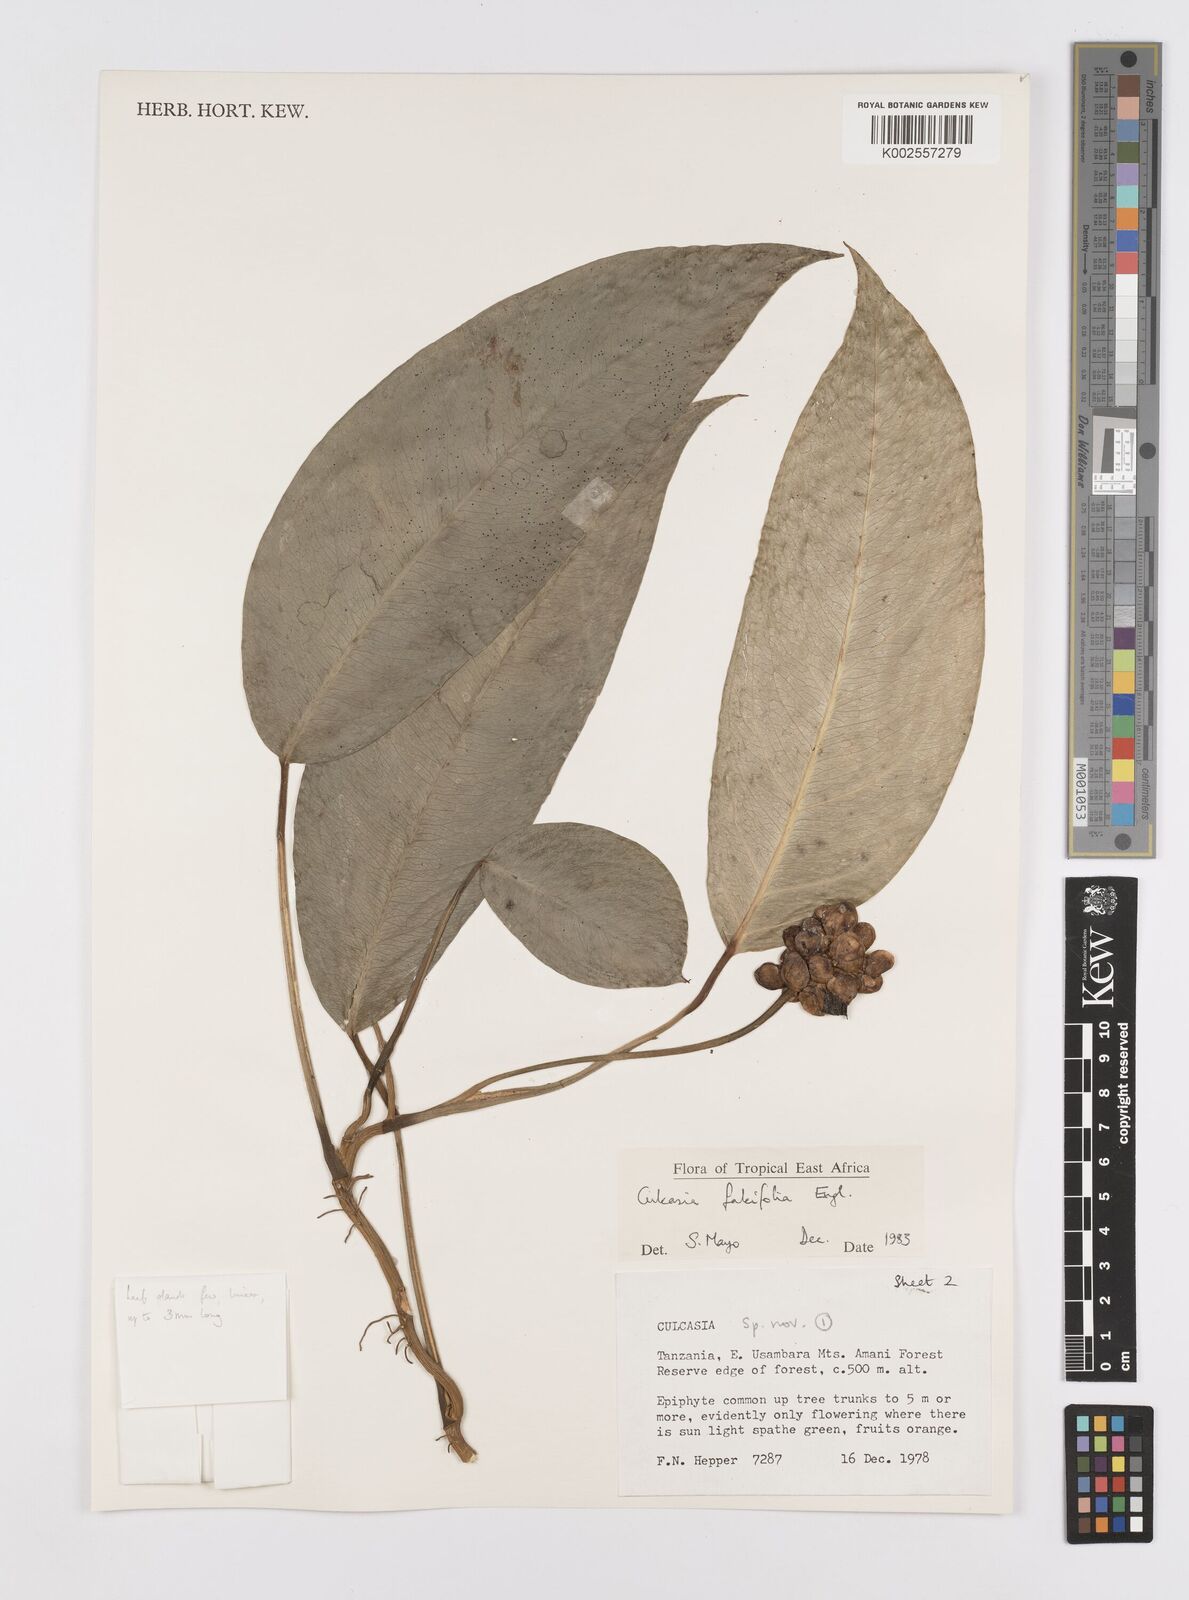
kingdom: Plantae
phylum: Tracheophyta
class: Liliopsida
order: Alismatales
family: Araceae
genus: Culcasia
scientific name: Culcasia falcifolia
